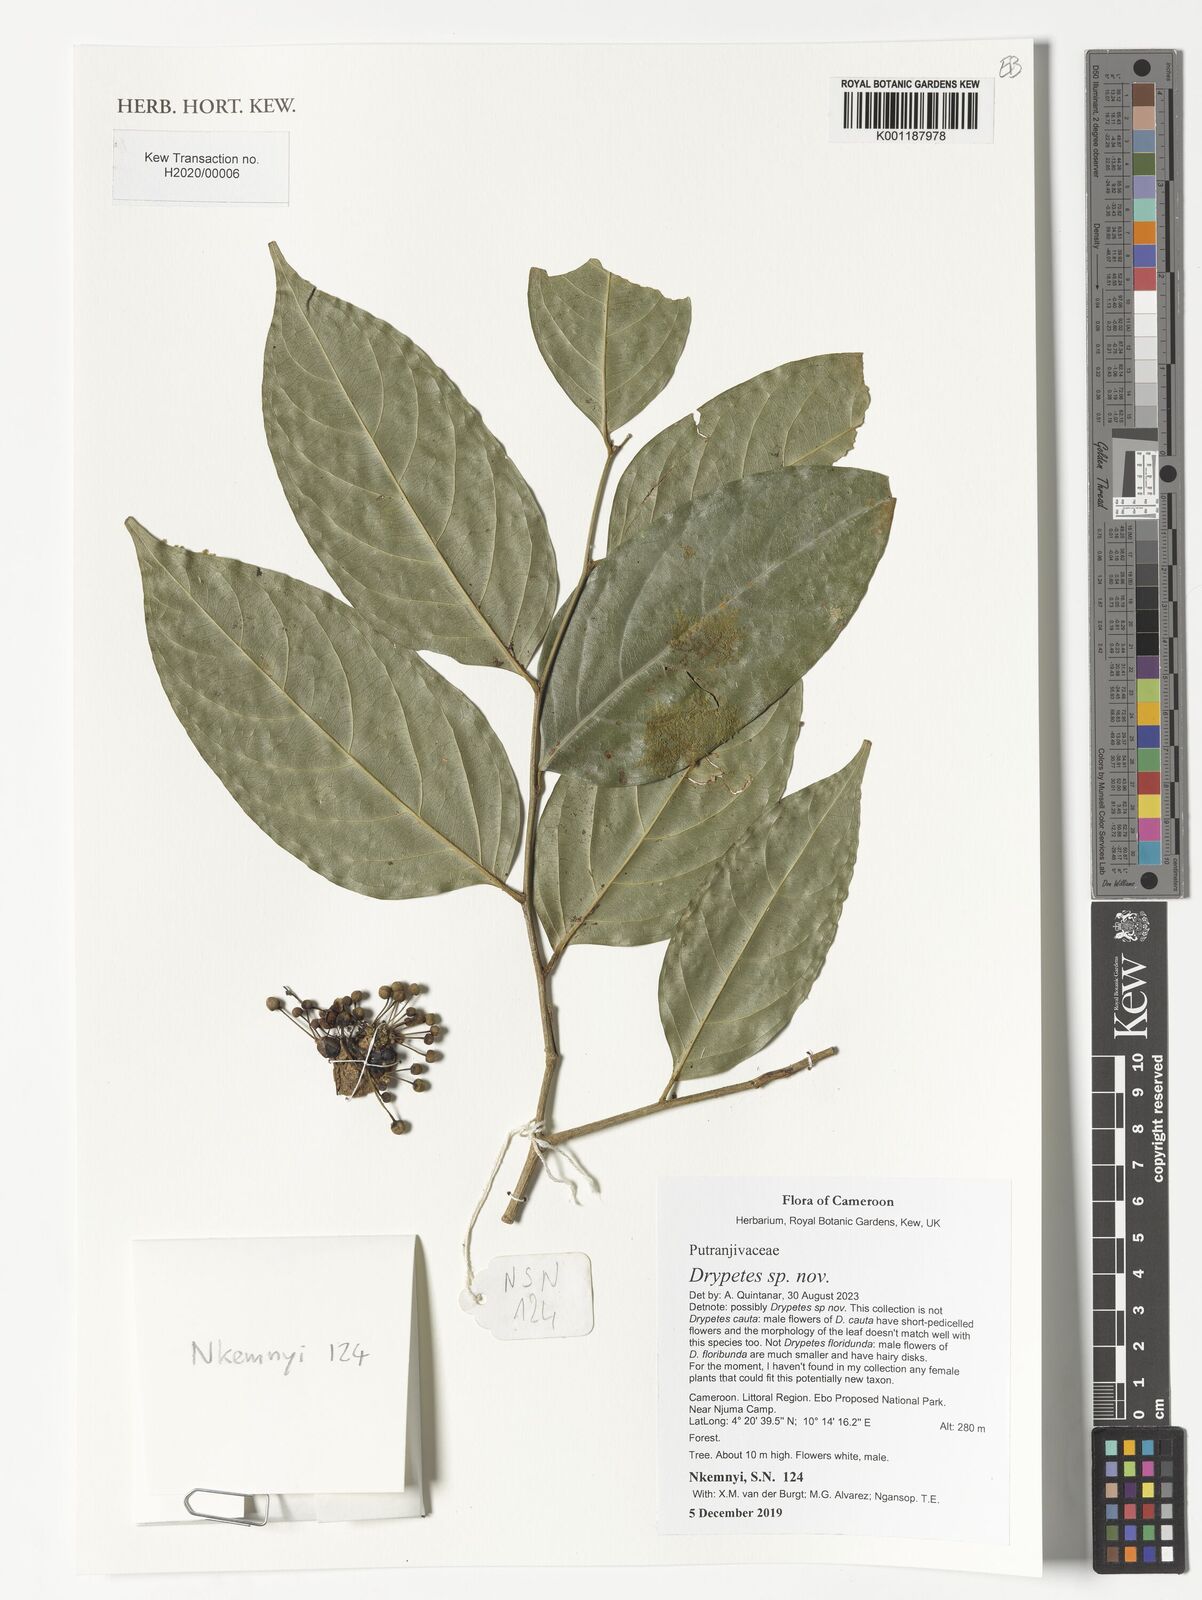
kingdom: Plantae
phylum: Tracheophyta
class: Magnoliopsida
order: Malpighiales
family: Putranjivaceae
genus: Drypetes
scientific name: Drypetes
